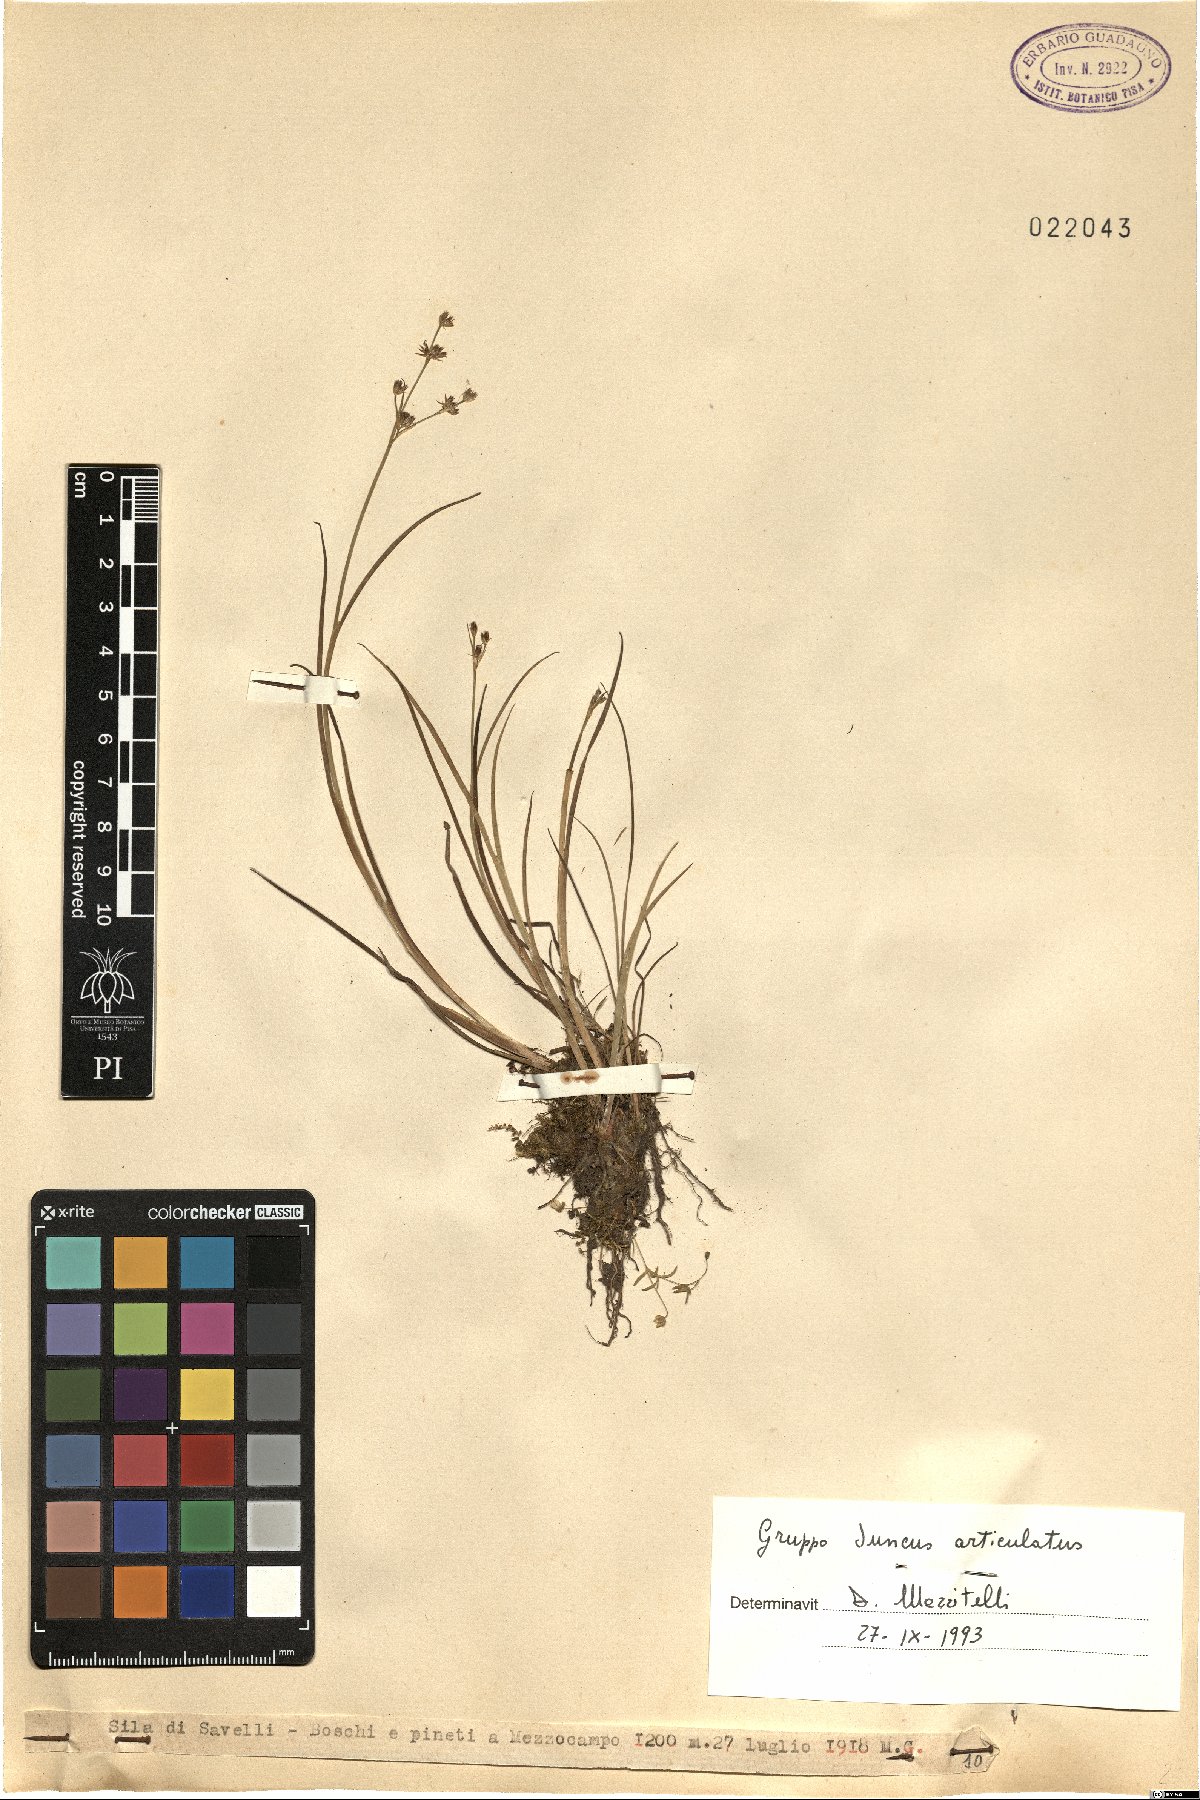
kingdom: Plantae
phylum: Tracheophyta
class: Liliopsida
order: Poales
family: Juncaceae
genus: Juncus
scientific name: Juncus articulatus
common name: Jointed rush
